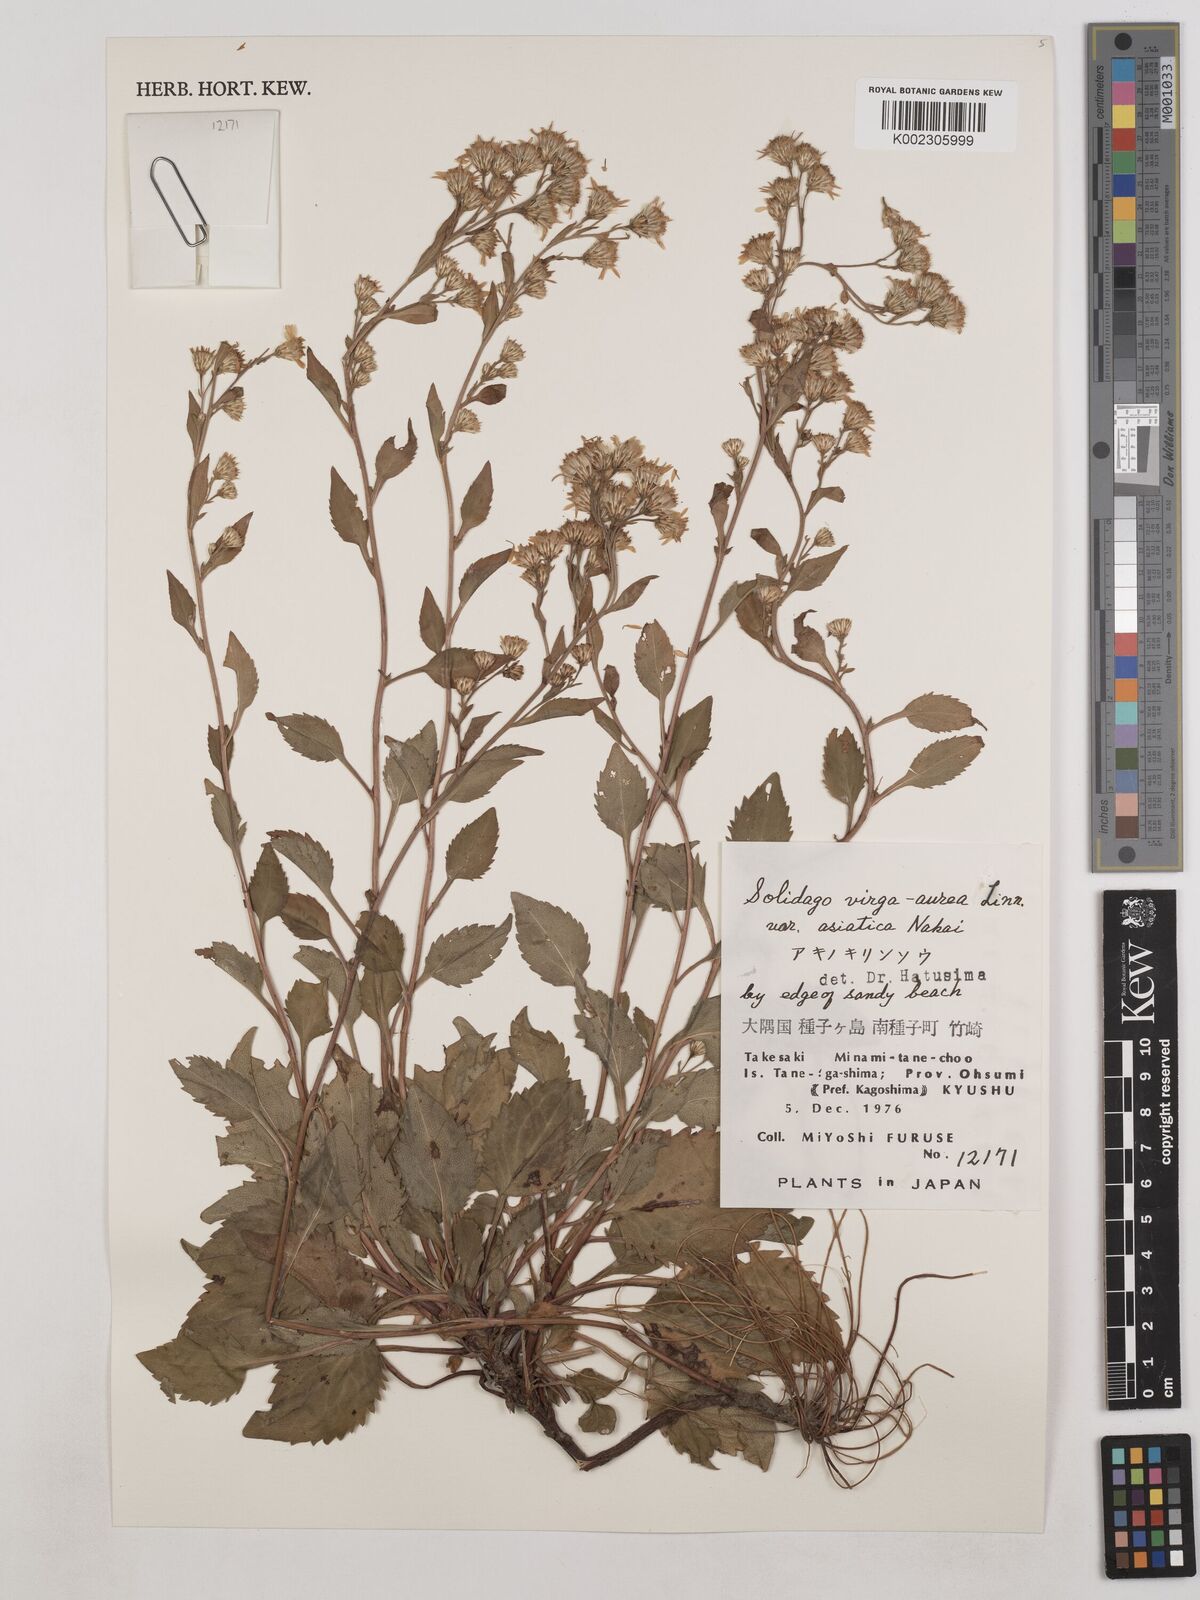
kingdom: Plantae
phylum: Tracheophyta
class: Magnoliopsida
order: Asterales
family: Asteraceae
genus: Solidago
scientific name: Solidago virgaurea
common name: Goldenrod
